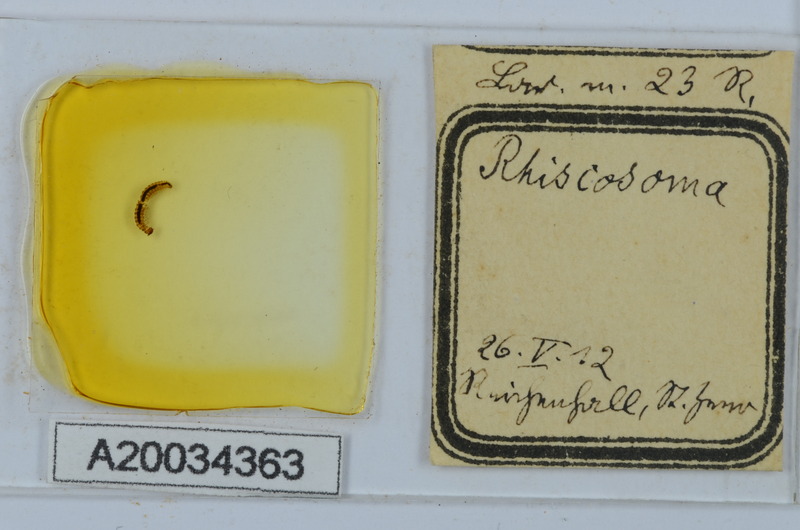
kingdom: Animalia
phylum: Arthropoda
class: Diplopoda
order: Chordeumatida
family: Attemsiidae
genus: Rhiscosoma
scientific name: Rhiscosoma
